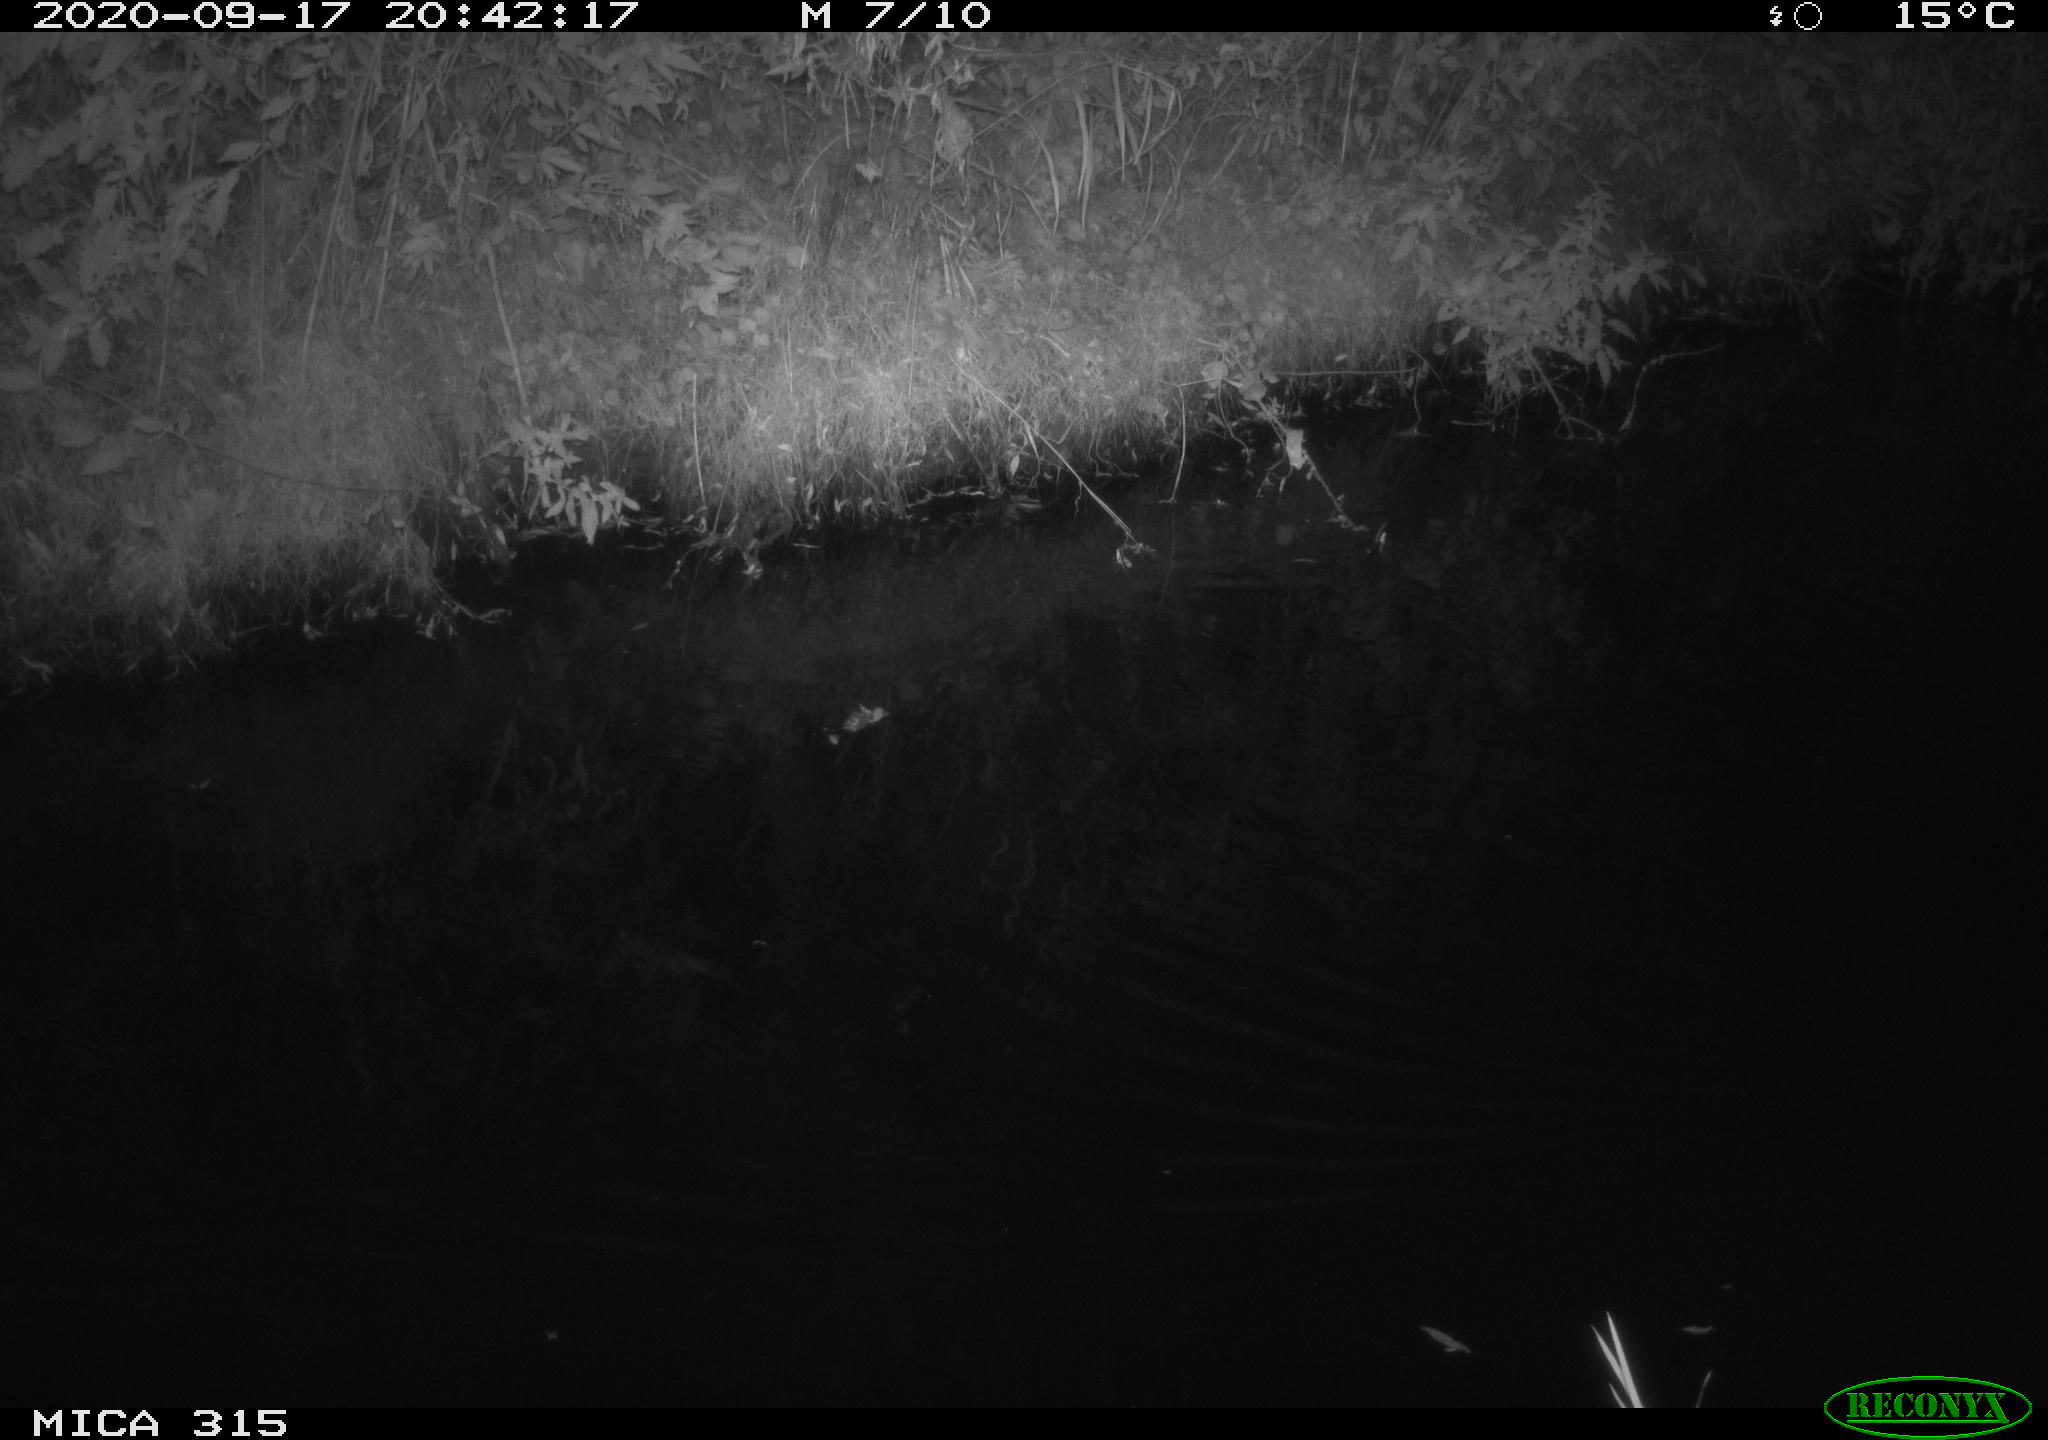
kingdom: Animalia
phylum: Chordata
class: Aves
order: Anseriformes
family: Anatidae
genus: Anas
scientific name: Anas platyrhynchos
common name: Mallard
